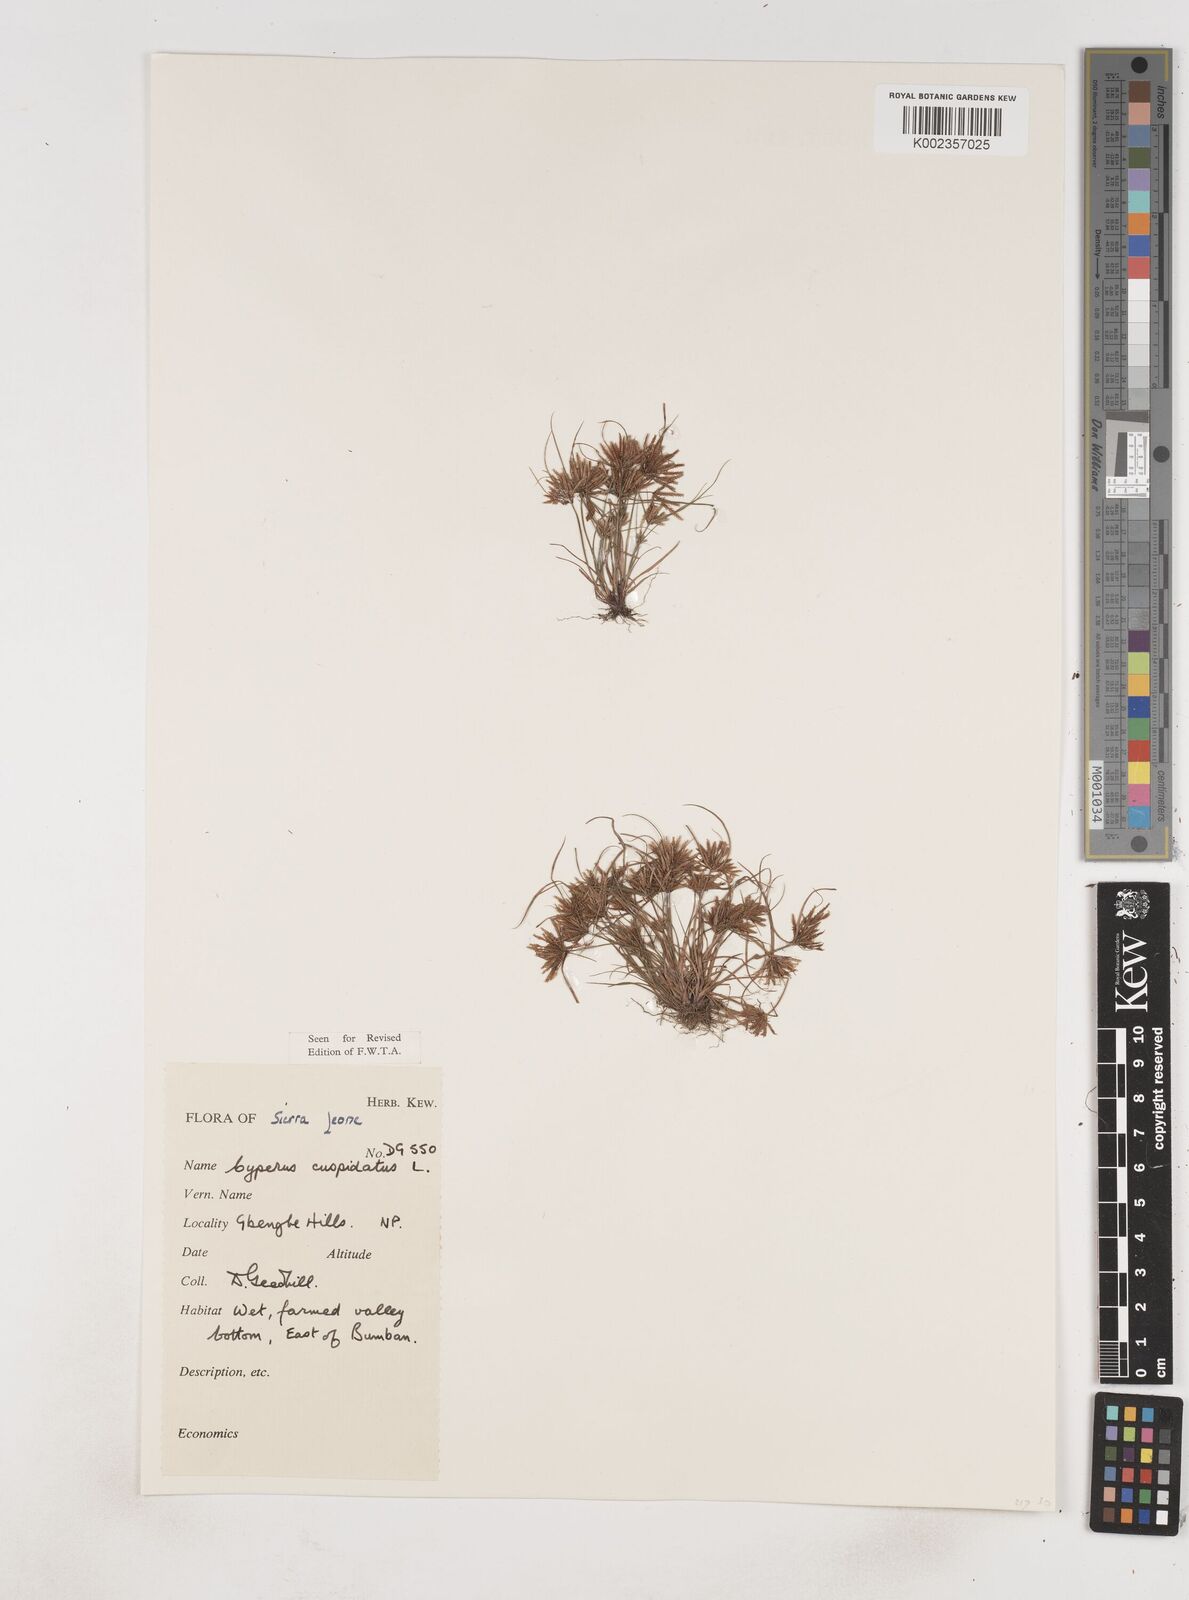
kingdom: Plantae
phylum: Tracheophyta
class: Liliopsida
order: Poales
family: Cyperaceae
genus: Cyperus
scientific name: Cyperus
